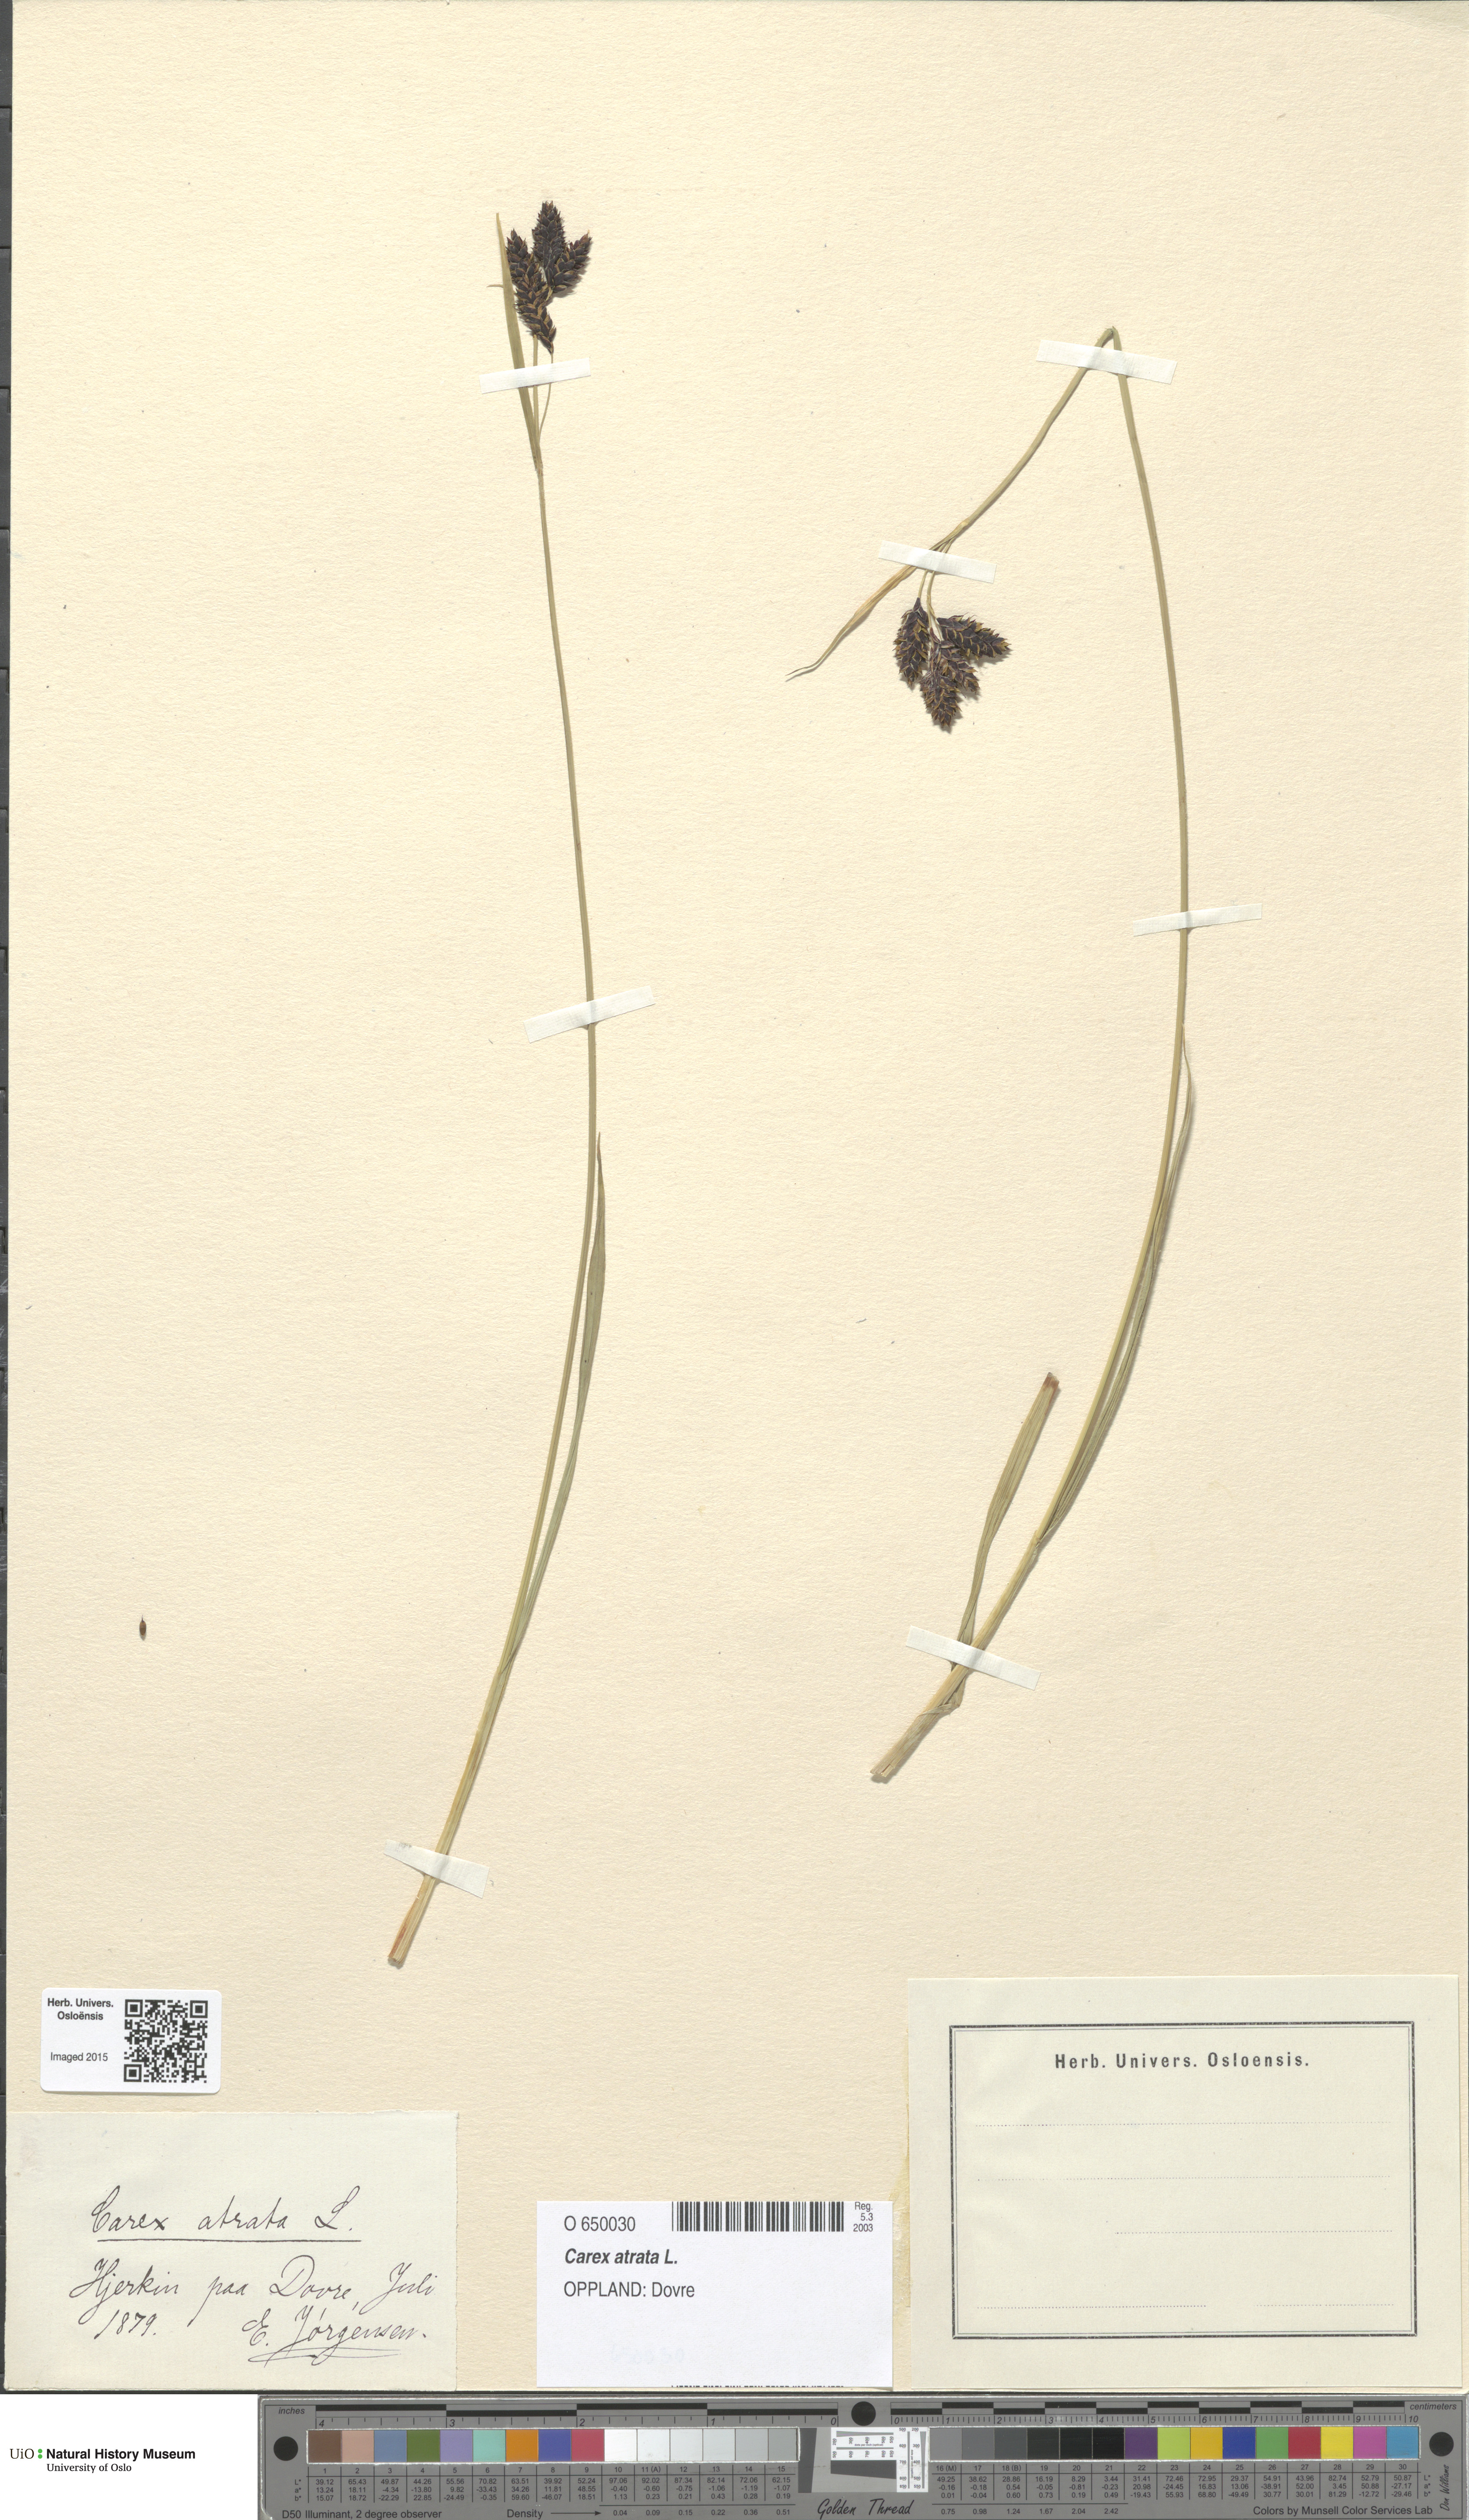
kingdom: Plantae
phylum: Tracheophyta
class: Liliopsida
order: Poales
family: Cyperaceae
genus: Carex
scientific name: Carex atrata
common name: Black alpine sedge
